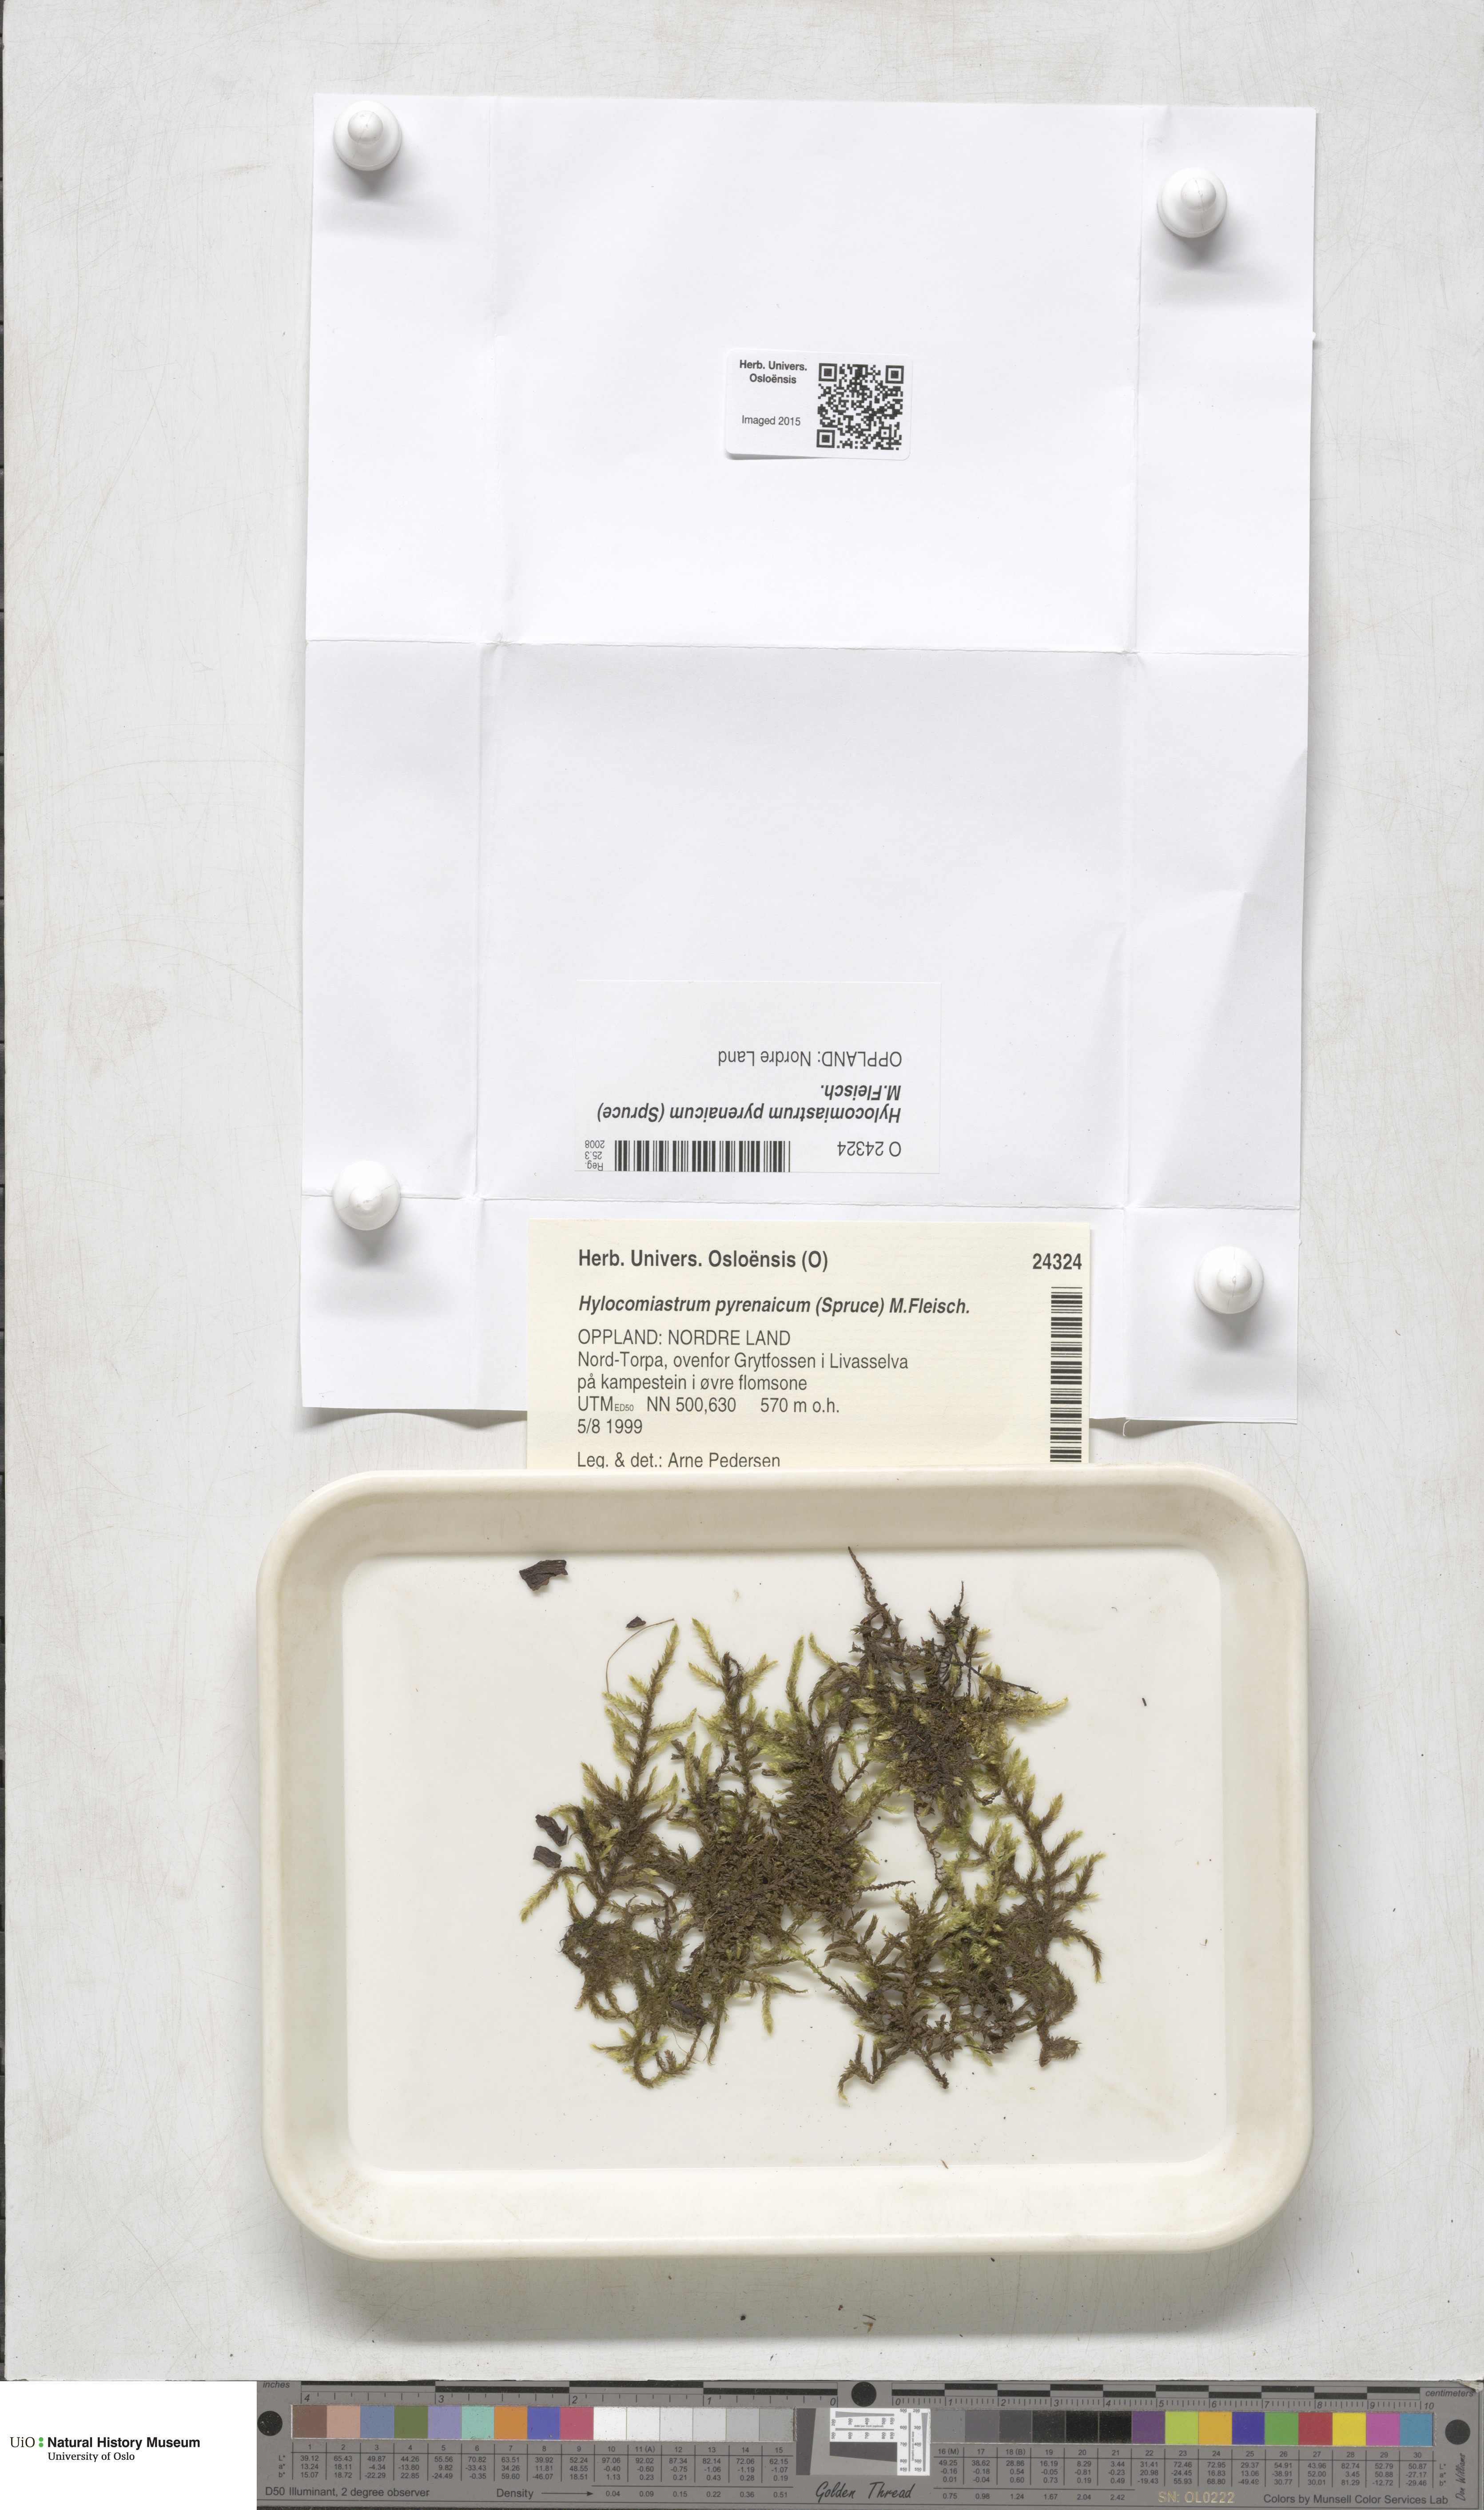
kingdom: Plantae
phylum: Bryophyta
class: Bryopsida
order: Hypnales
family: Hylocomiaceae
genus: Hylocomiastrum
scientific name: Hylocomiastrum pyrenaicum
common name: Oake s wood moss
